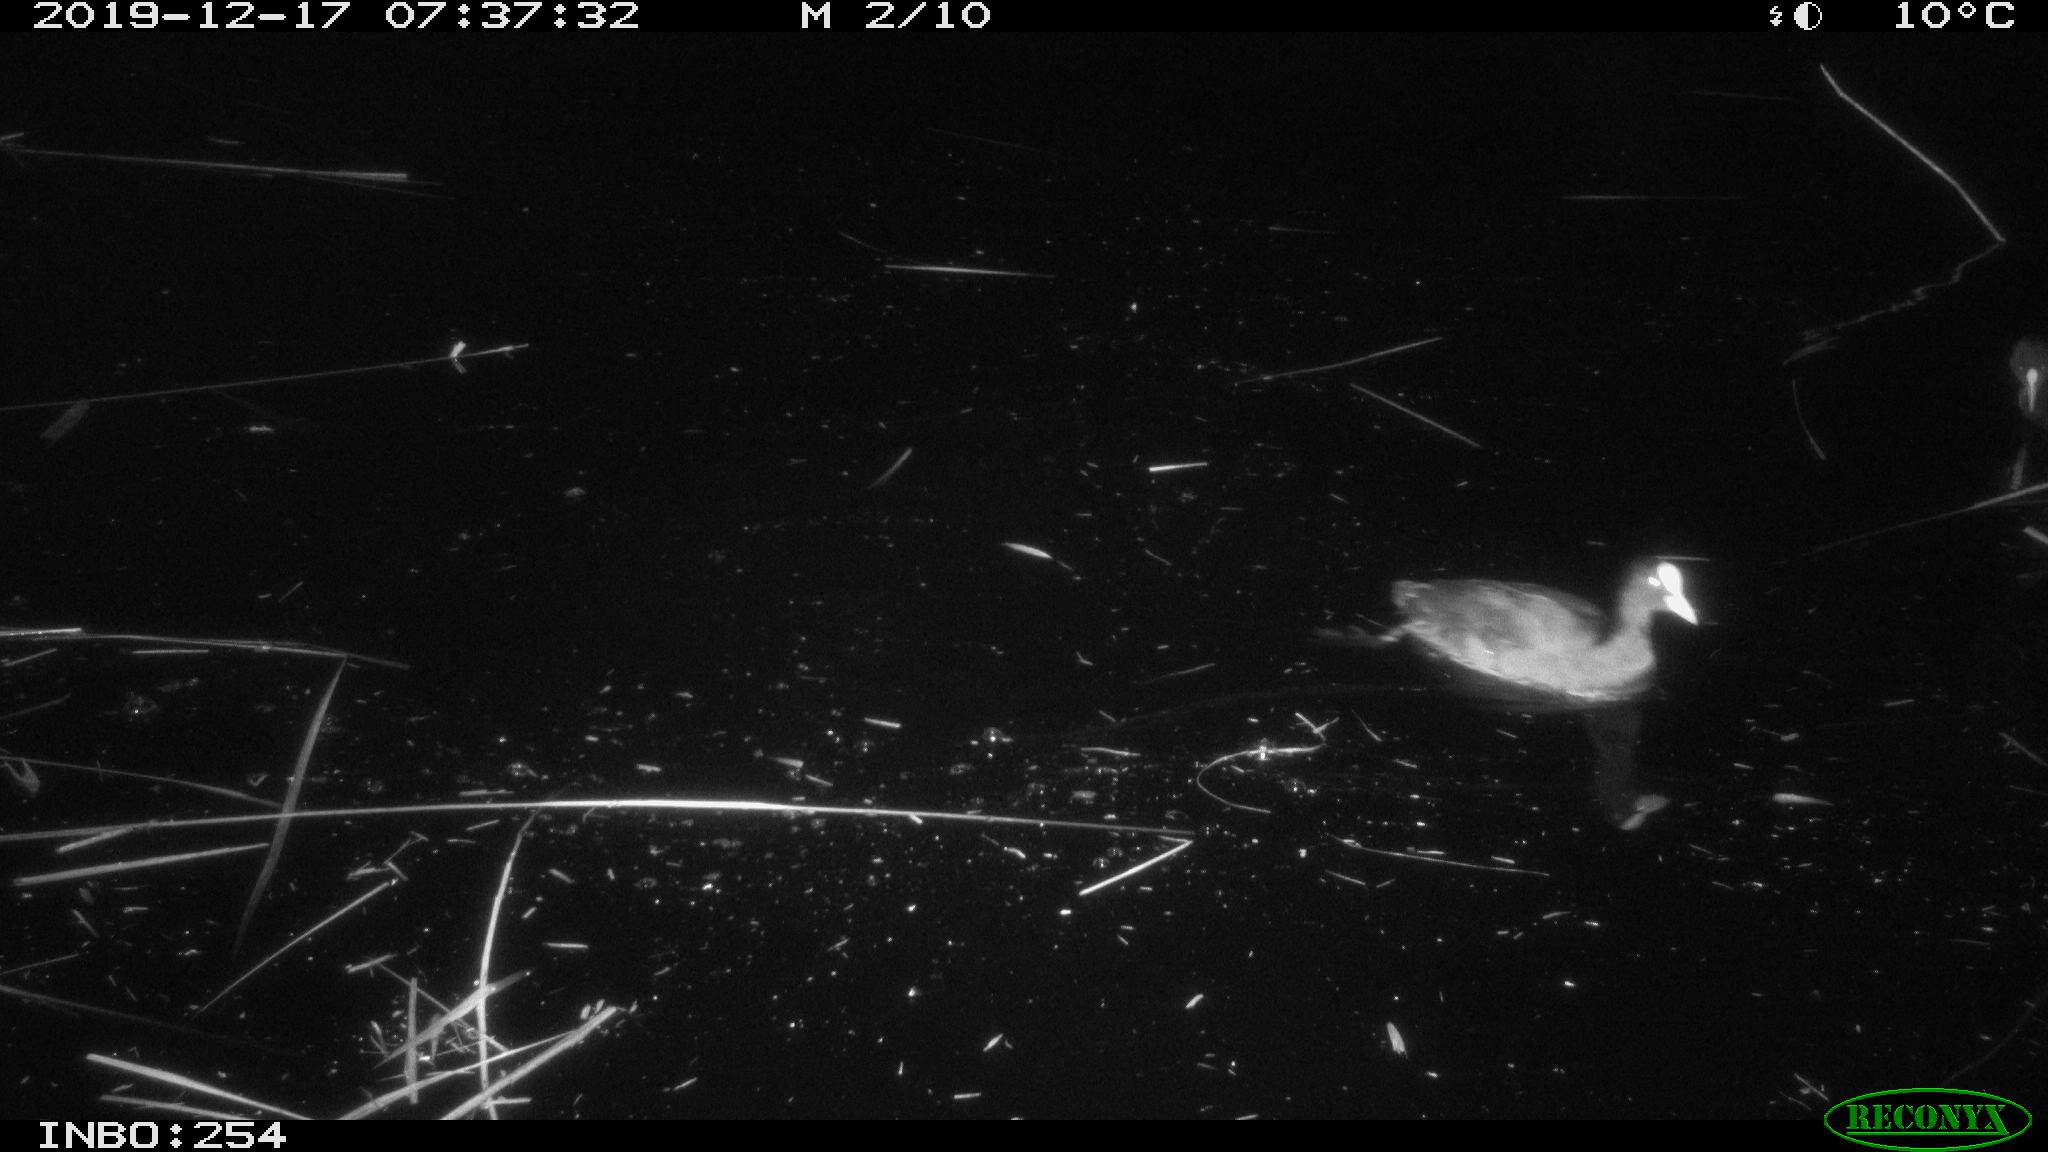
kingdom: Animalia
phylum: Chordata
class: Aves
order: Gruiformes
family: Rallidae
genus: Fulica
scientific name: Fulica atra
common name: Eurasian coot
